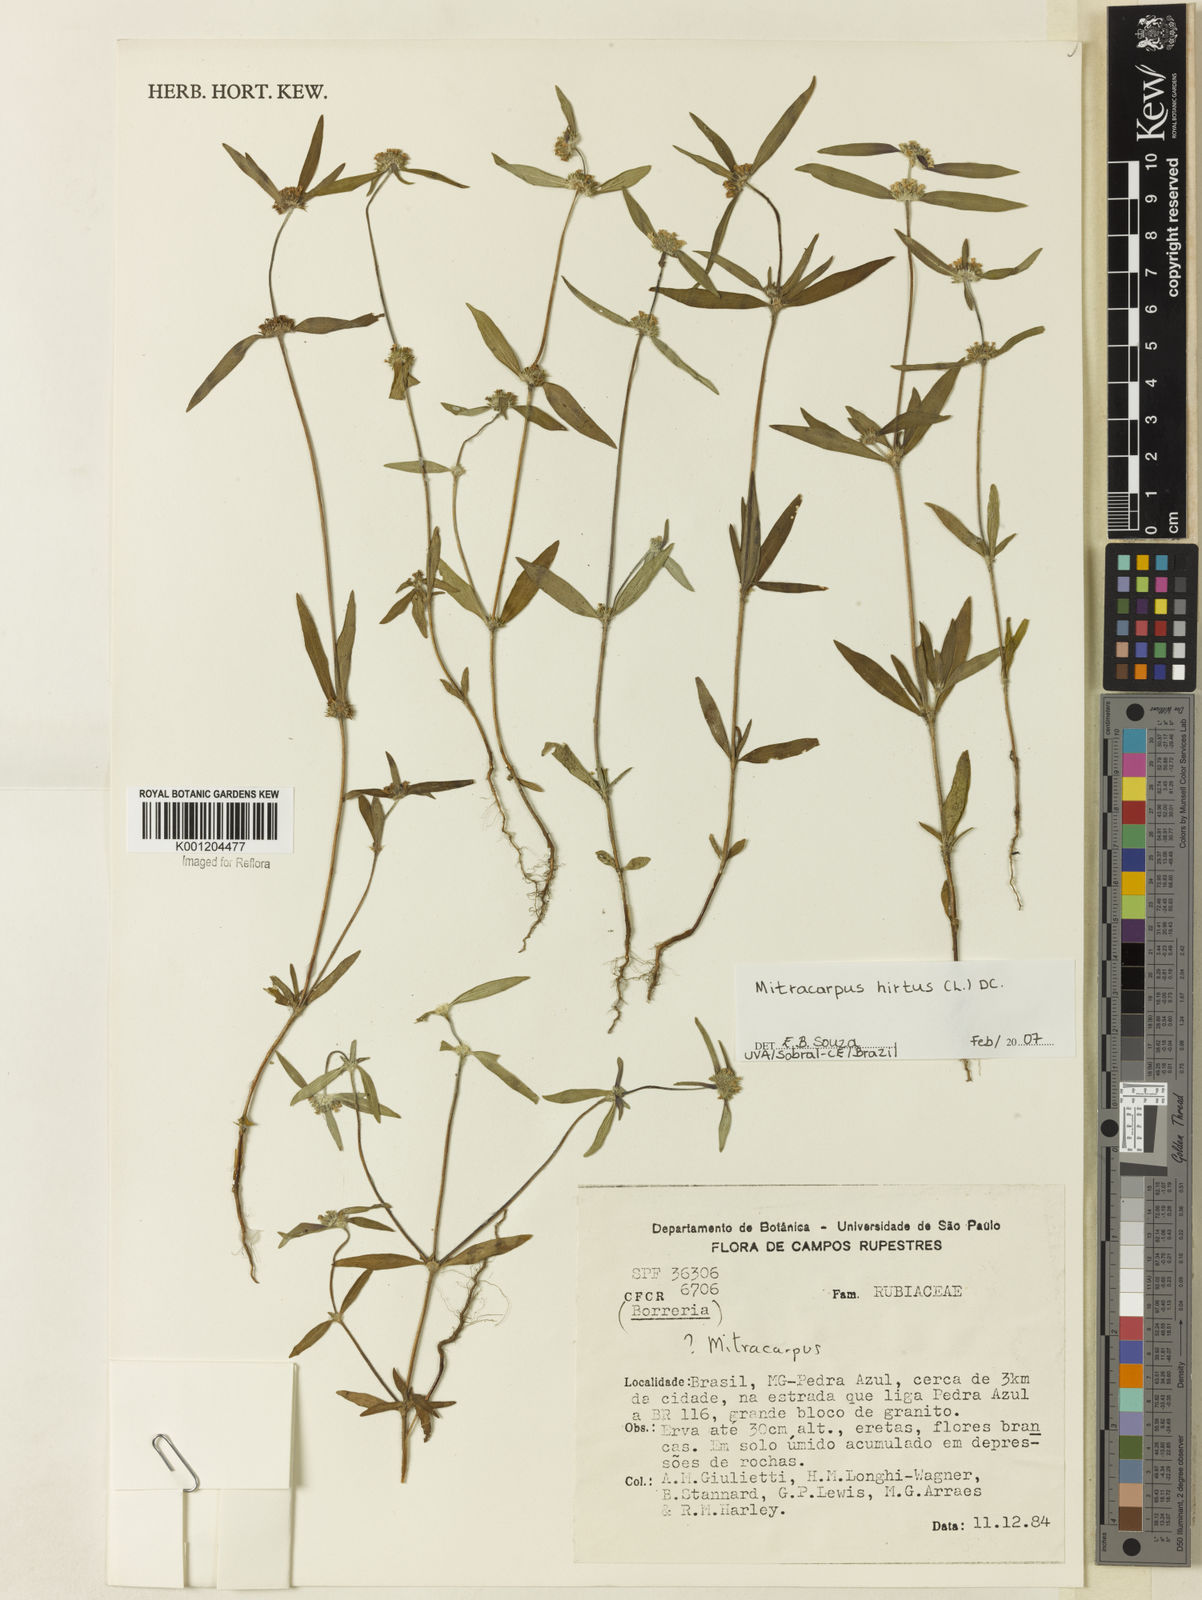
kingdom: Plantae
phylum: Tracheophyta
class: Magnoliopsida
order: Gentianales
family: Rubiaceae
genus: Mitracarpus
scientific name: Mitracarpus hirtus
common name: Tropical girdlepod
